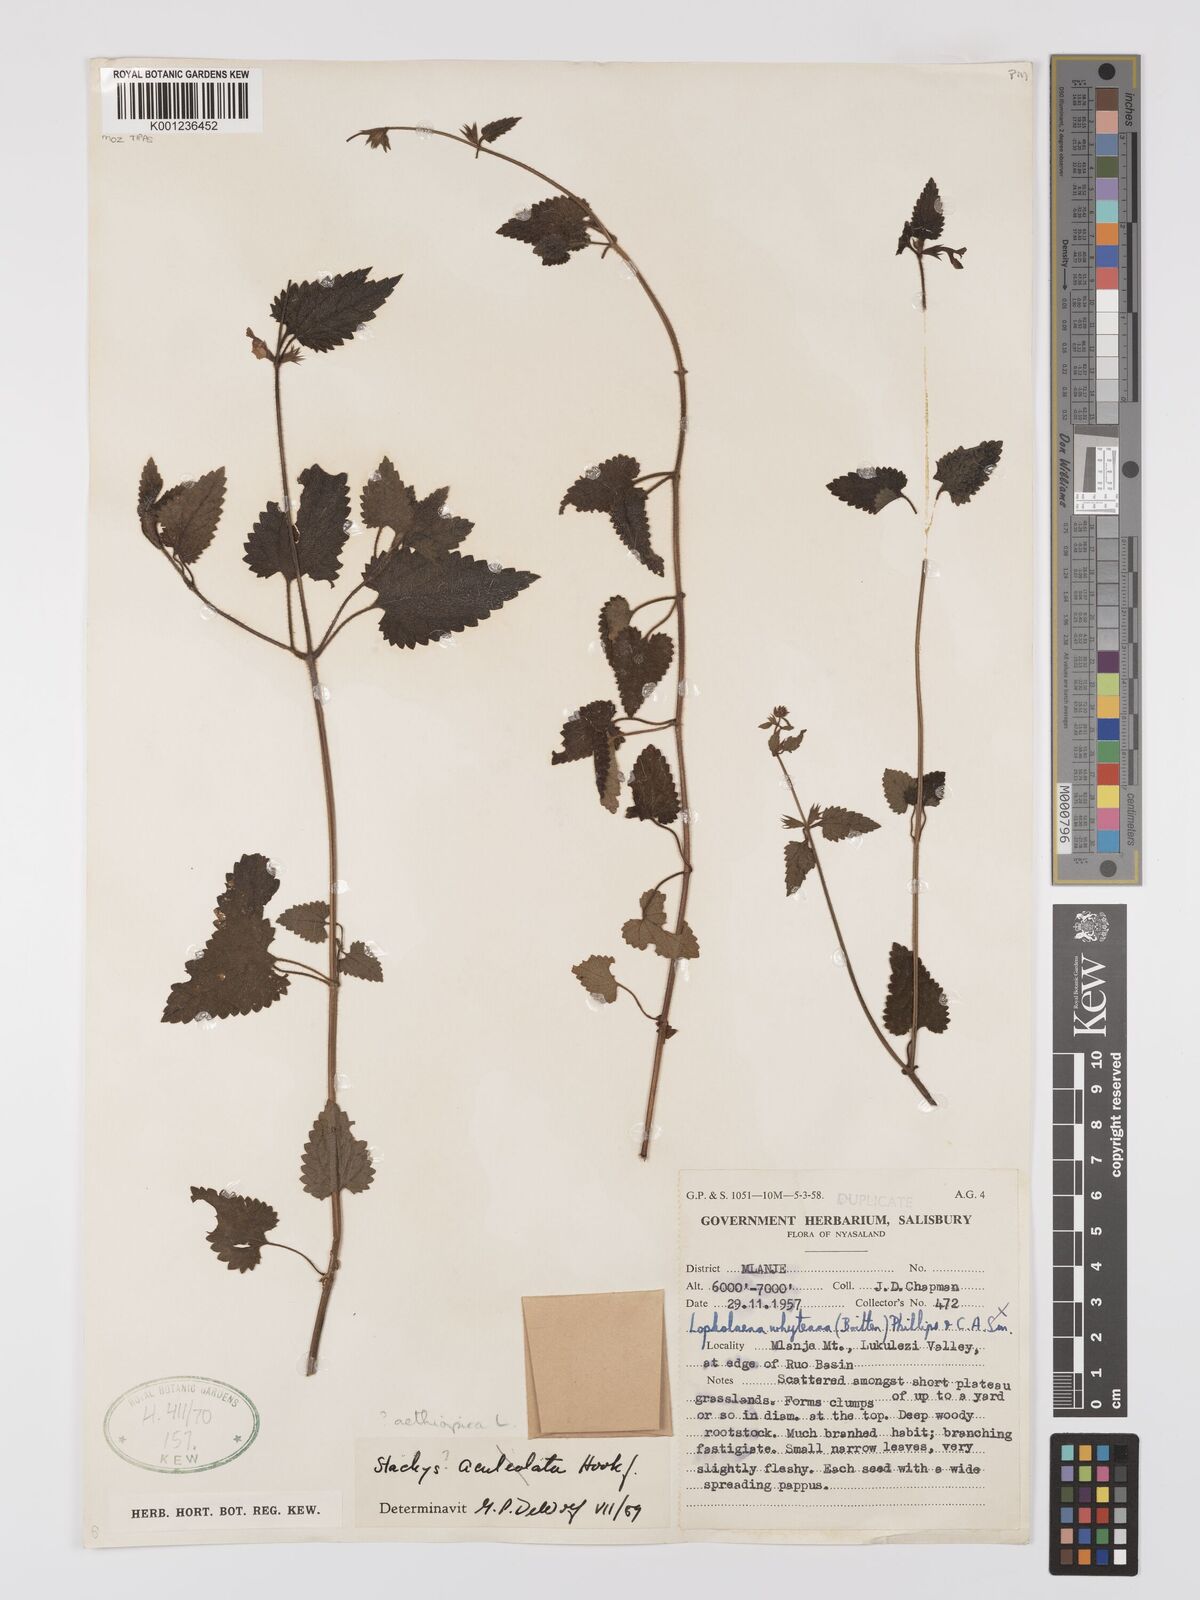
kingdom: Plantae
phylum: Tracheophyta
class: Magnoliopsida
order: Lamiales
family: Lamiaceae
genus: Stachys
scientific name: Stachys didymantha
